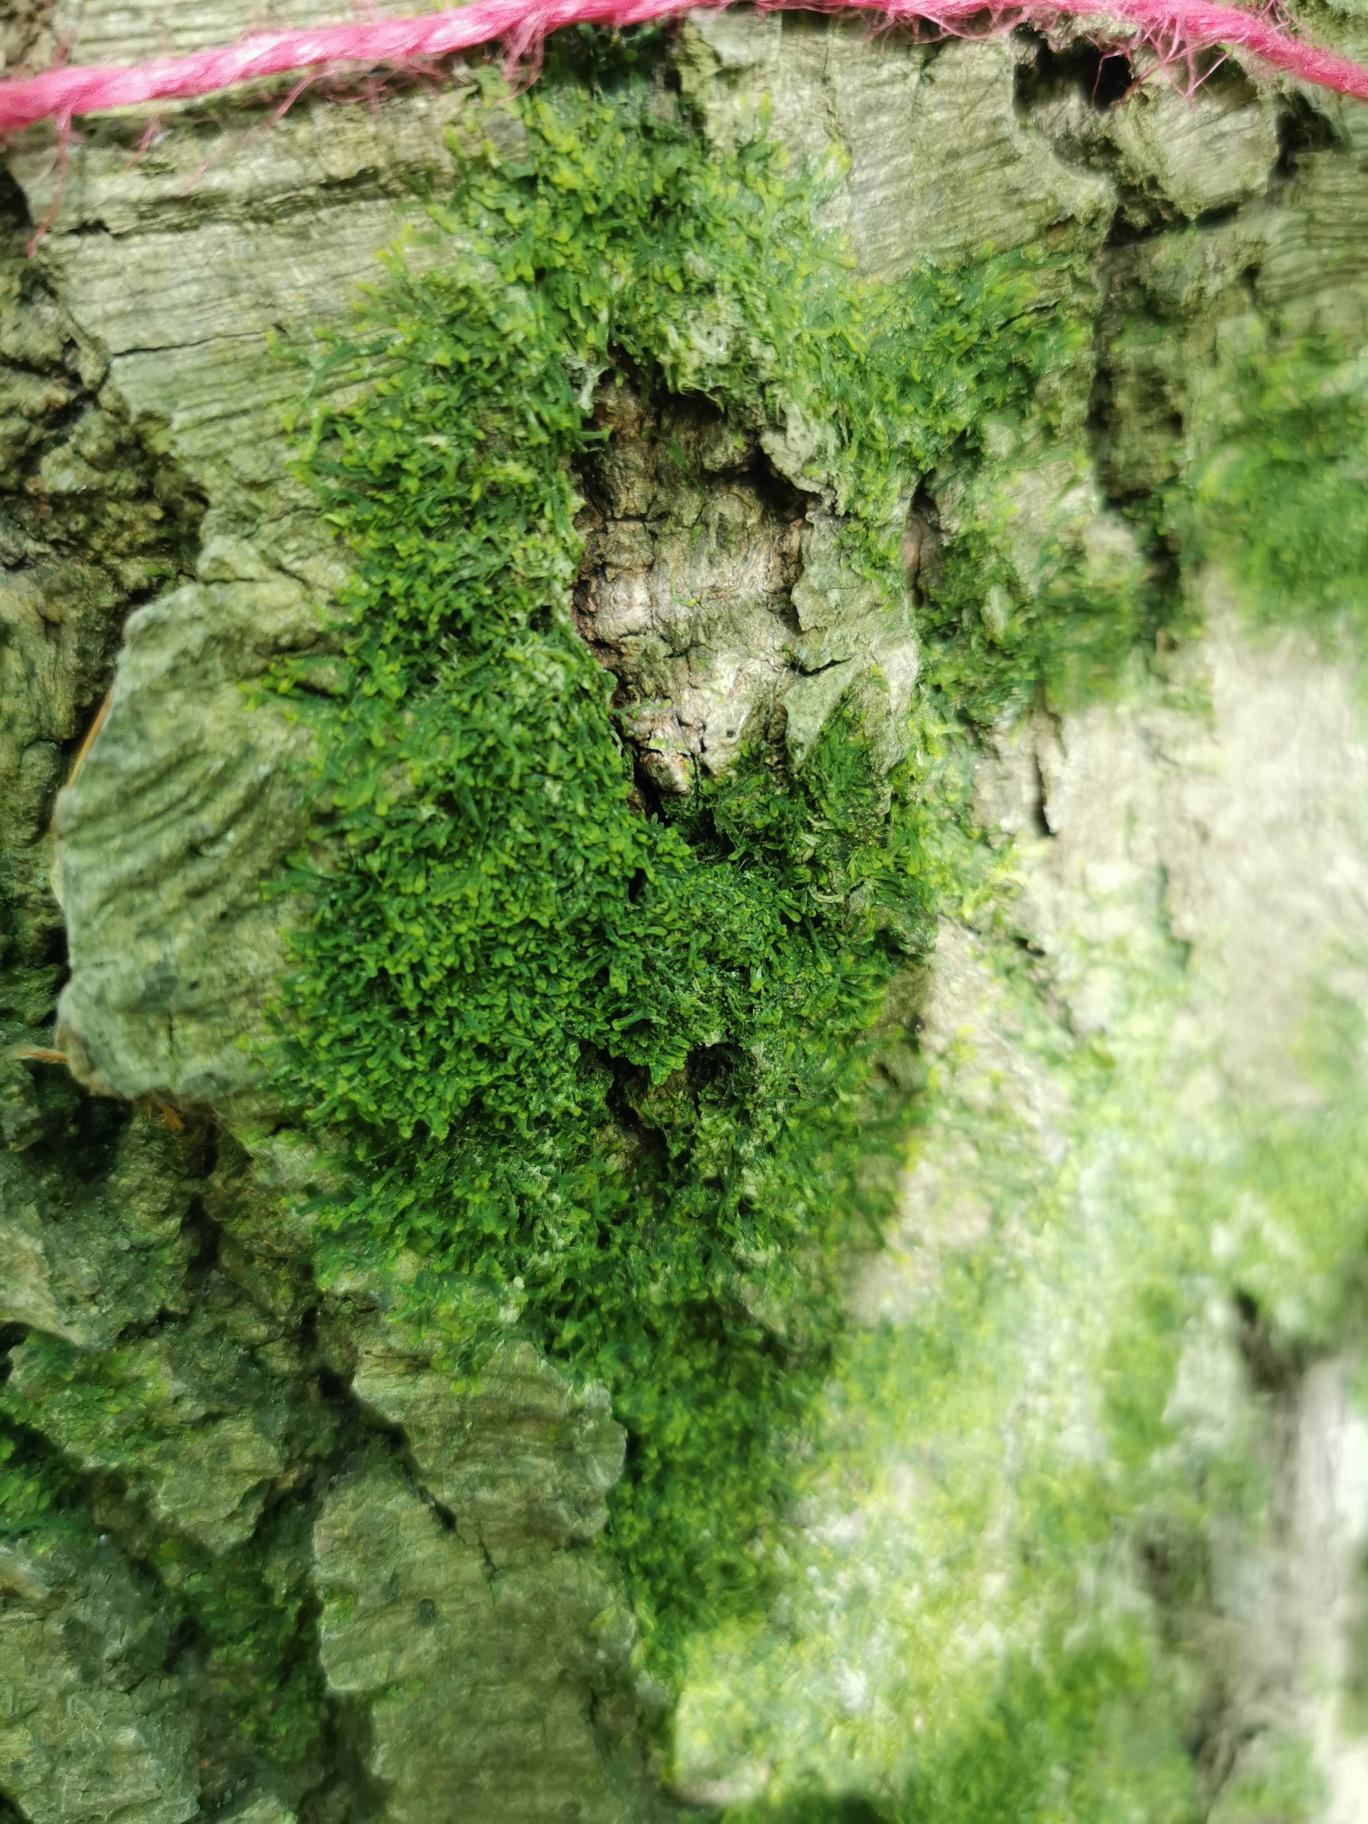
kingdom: Plantae
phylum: Marchantiophyta
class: Jungermanniopsida
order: Metzgeriales
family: Metzgeriaceae
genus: Metzgeria
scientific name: Metzgeria furcata
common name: Almindelig gaffelløv
